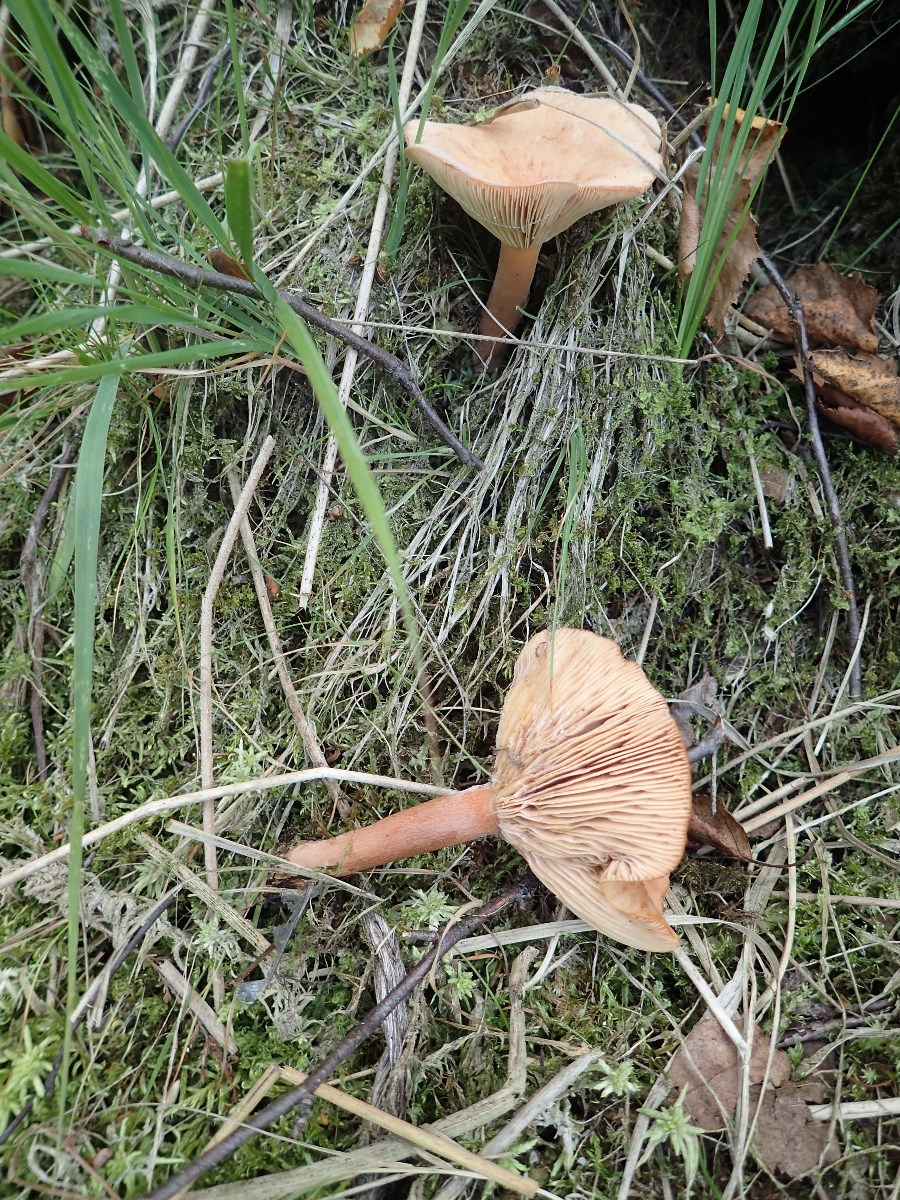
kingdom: Fungi
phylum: Basidiomycota
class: Agaricomycetes
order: Russulales
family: Russulaceae
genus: Lactarius
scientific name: Lactarius tabidus
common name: rynket mælkehat
